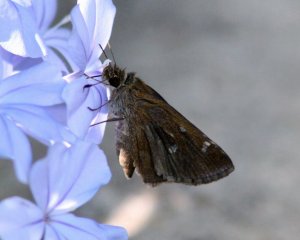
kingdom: Animalia
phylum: Arthropoda
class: Insecta
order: Lepidoptera
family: Hesperiidae
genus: Lerema
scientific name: Lerema accius
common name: Clouded Skipper
